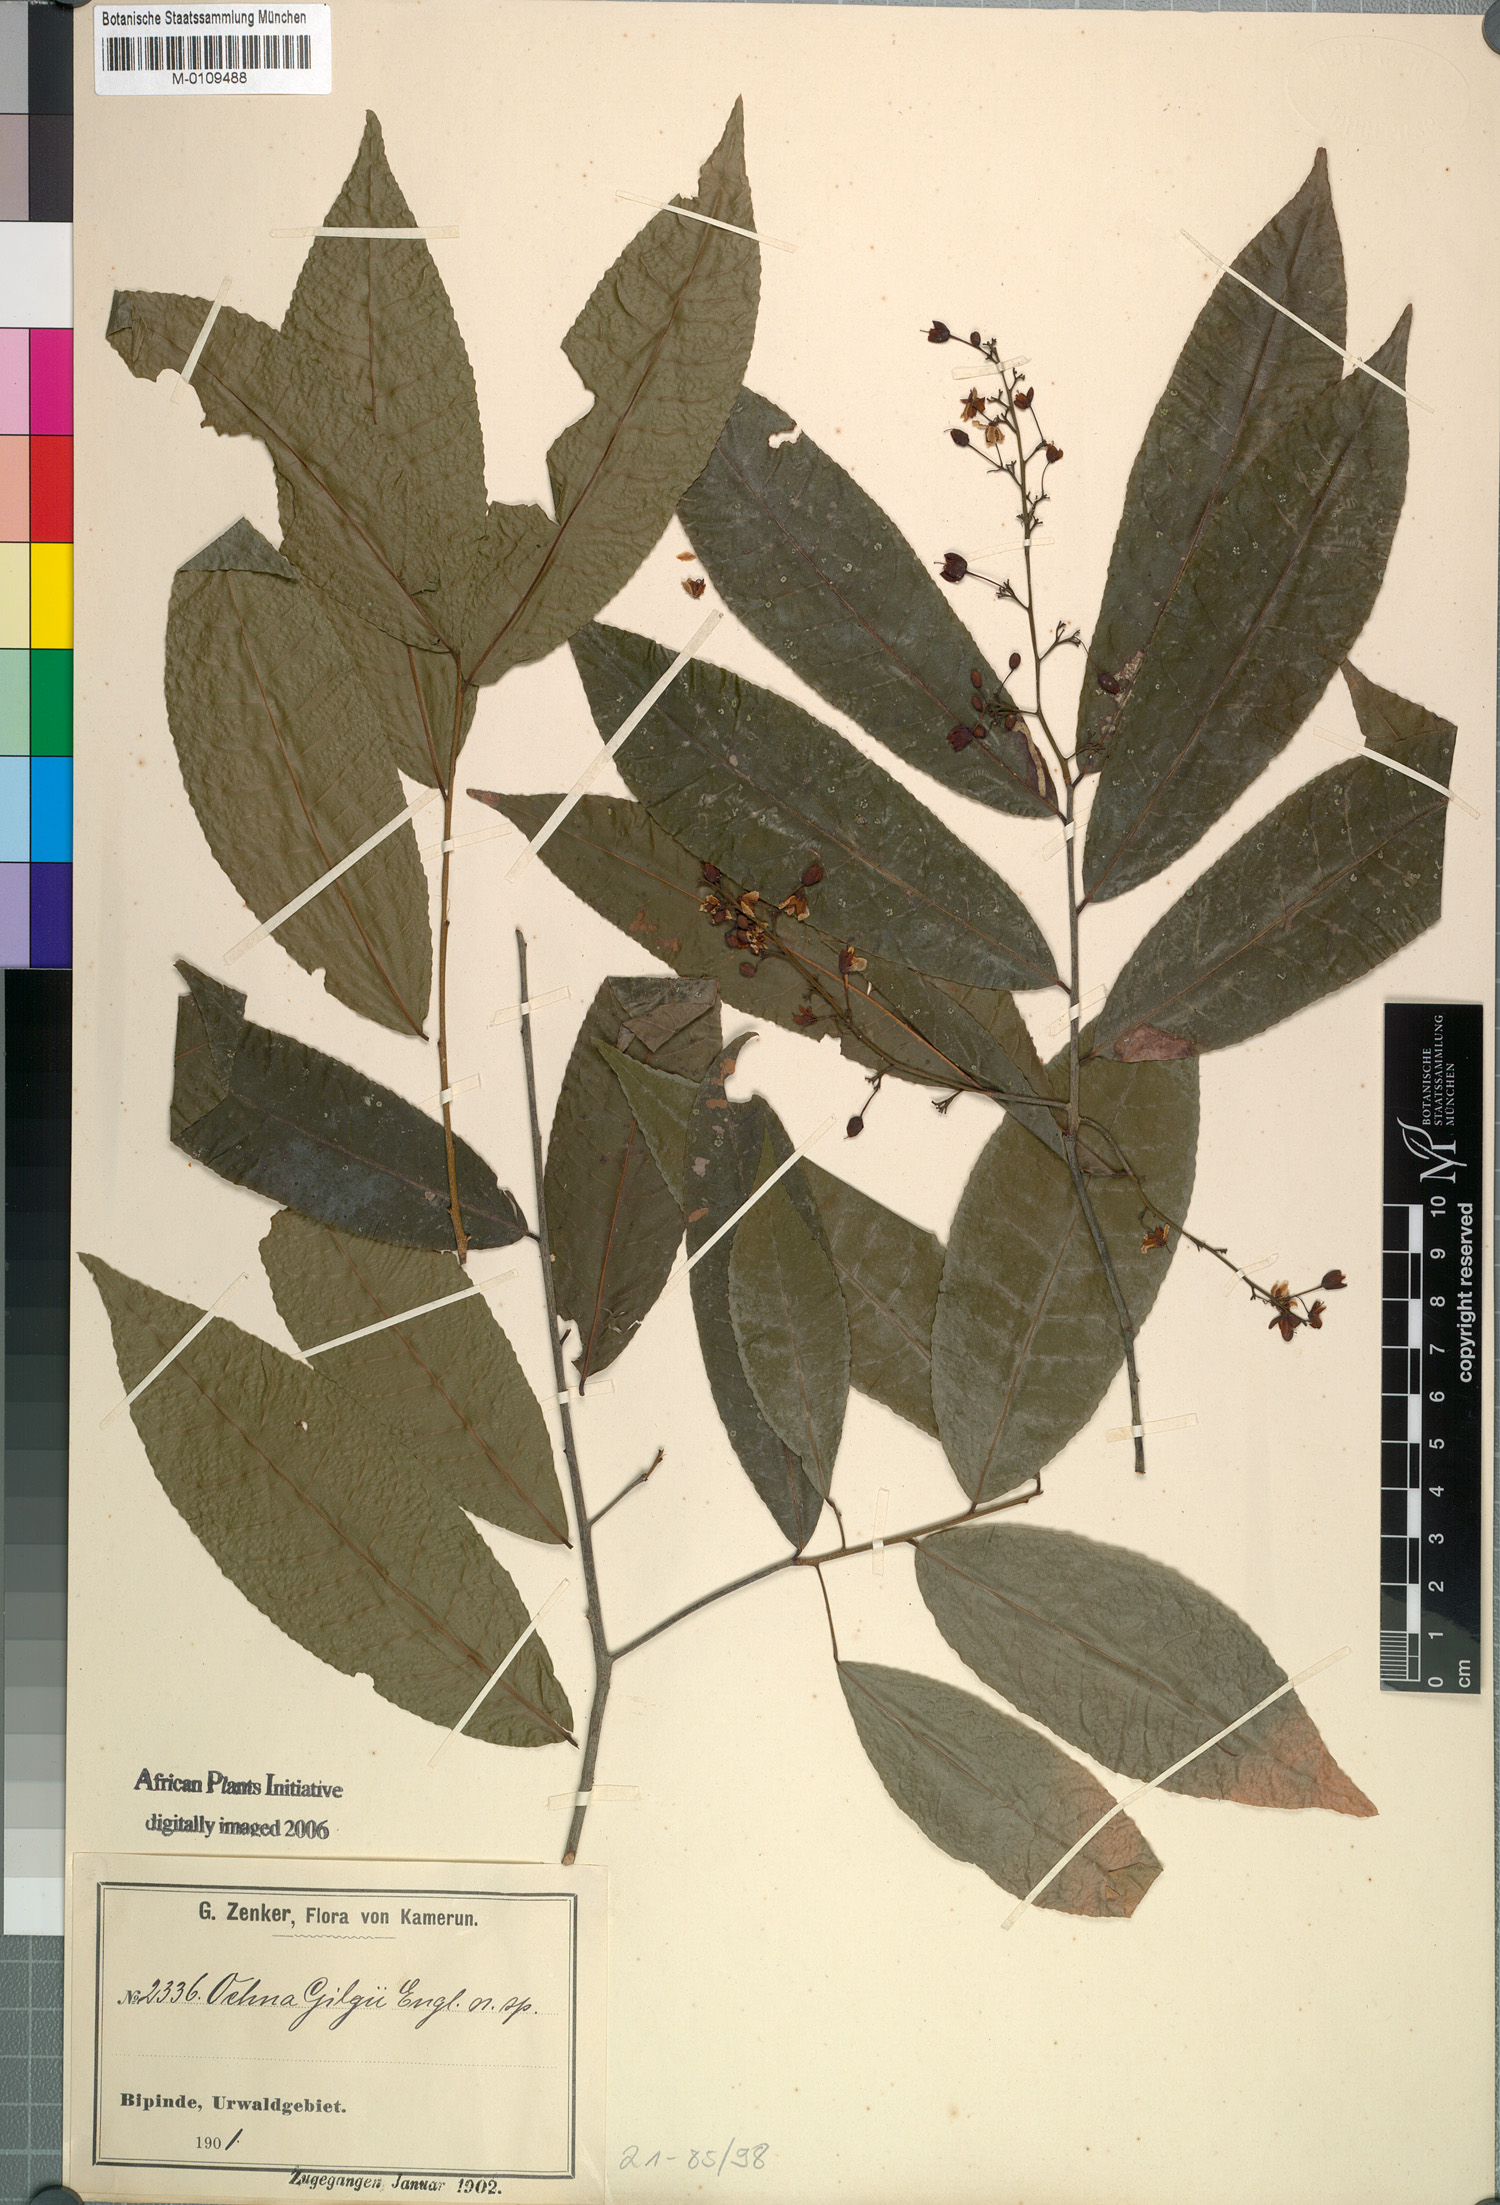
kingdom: Plantae
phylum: Tracheophyta
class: Magnoliopsida
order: Malpighiales
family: Ochnaceae
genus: Ochna
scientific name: Ochna membranacea
